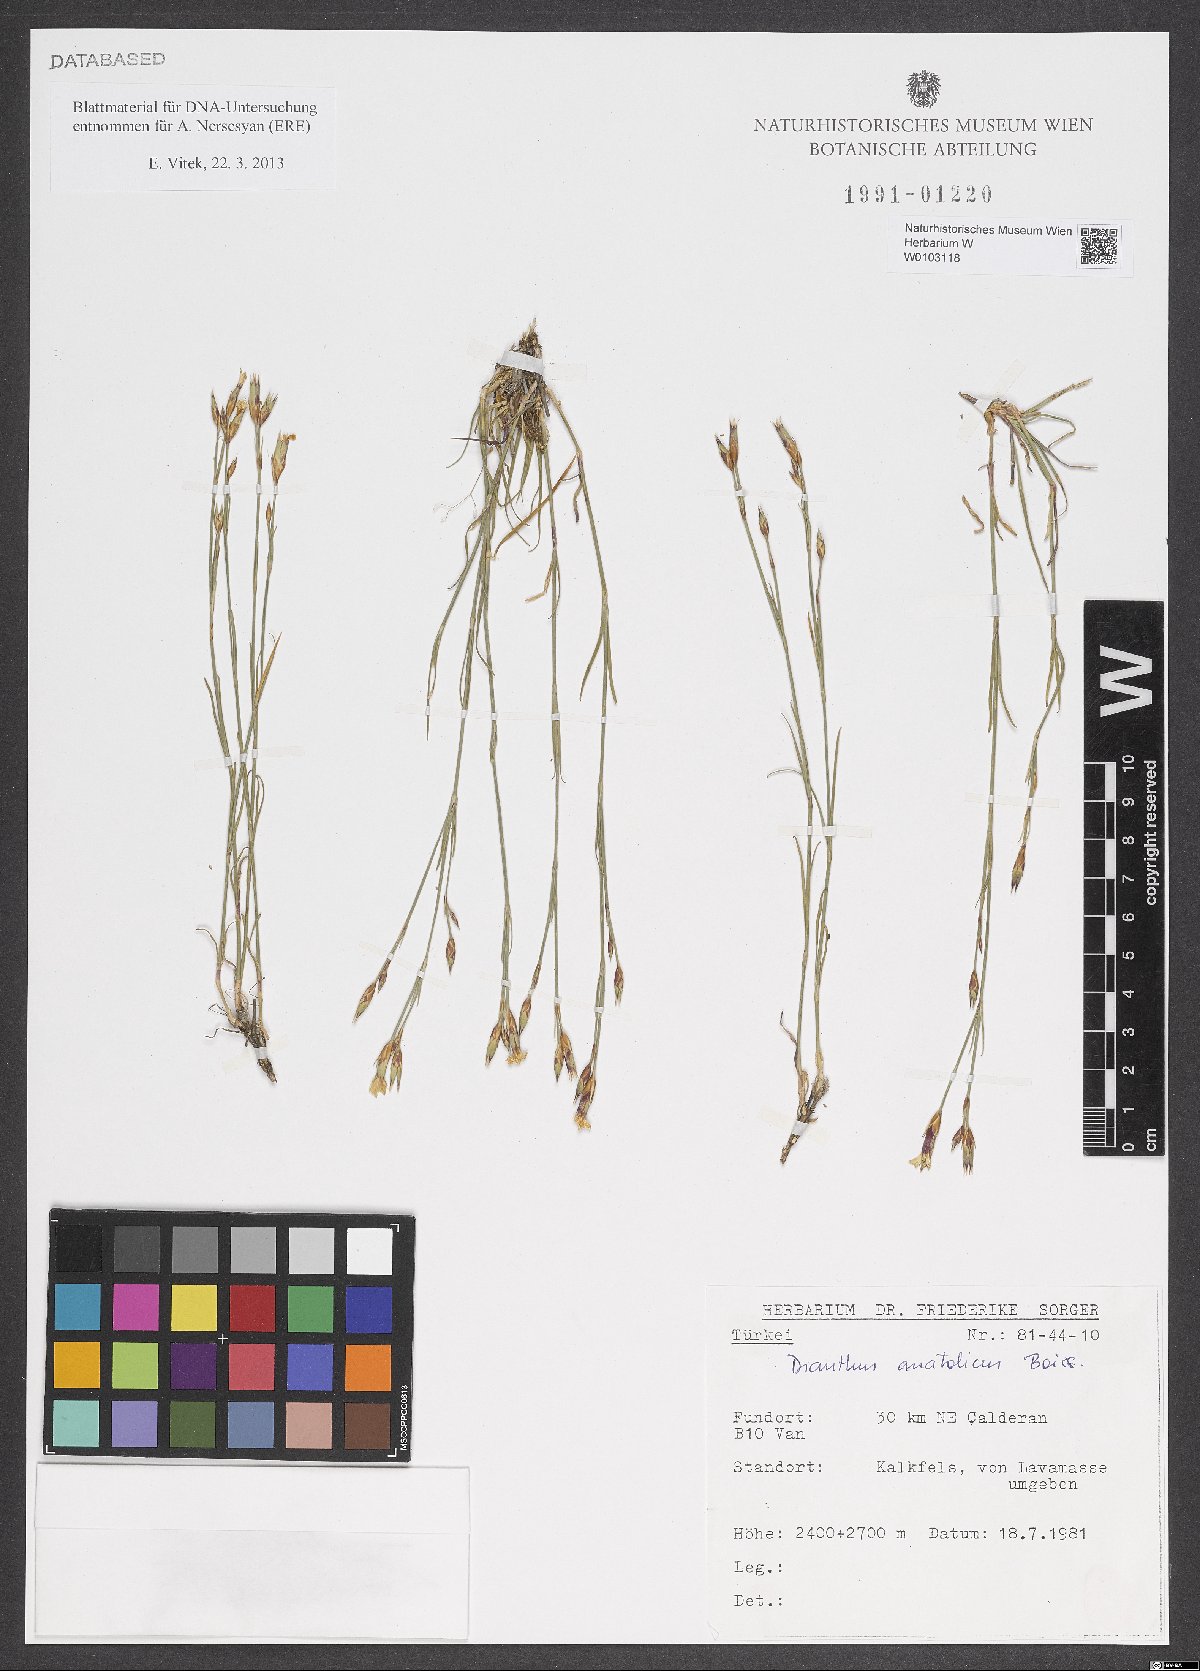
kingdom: Plantae
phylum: Tracheophyta
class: Magnoliopsida
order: Caryophyllales
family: Caryophyllaceae
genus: Dianthus
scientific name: Dianthus anatolicus
